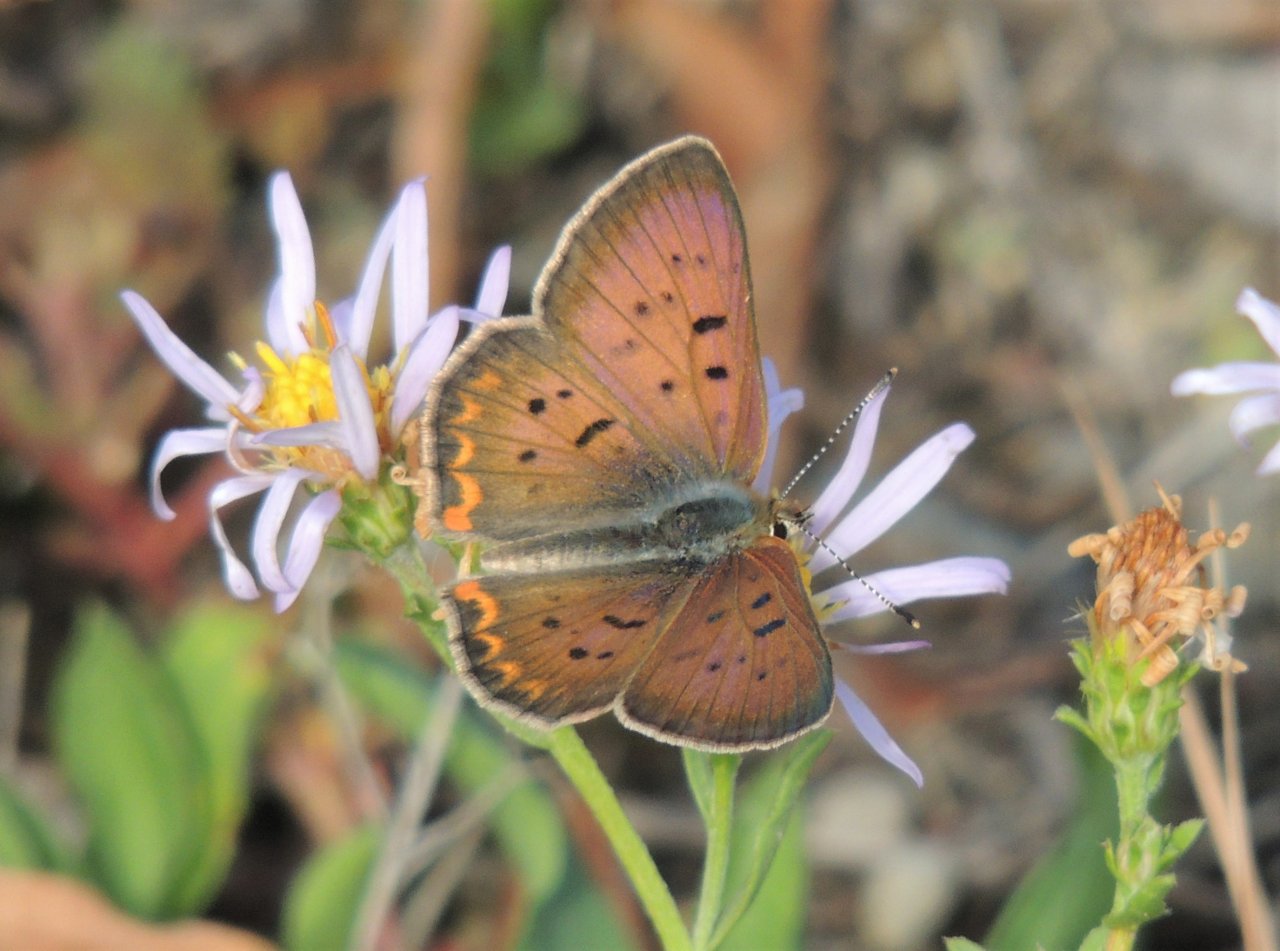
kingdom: Animalia
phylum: Arthropoda
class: Insecta
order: Lepidoptera
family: Sesiidae
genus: Sesia
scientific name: Sesia Lycaena helloides
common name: Purplish Copper
